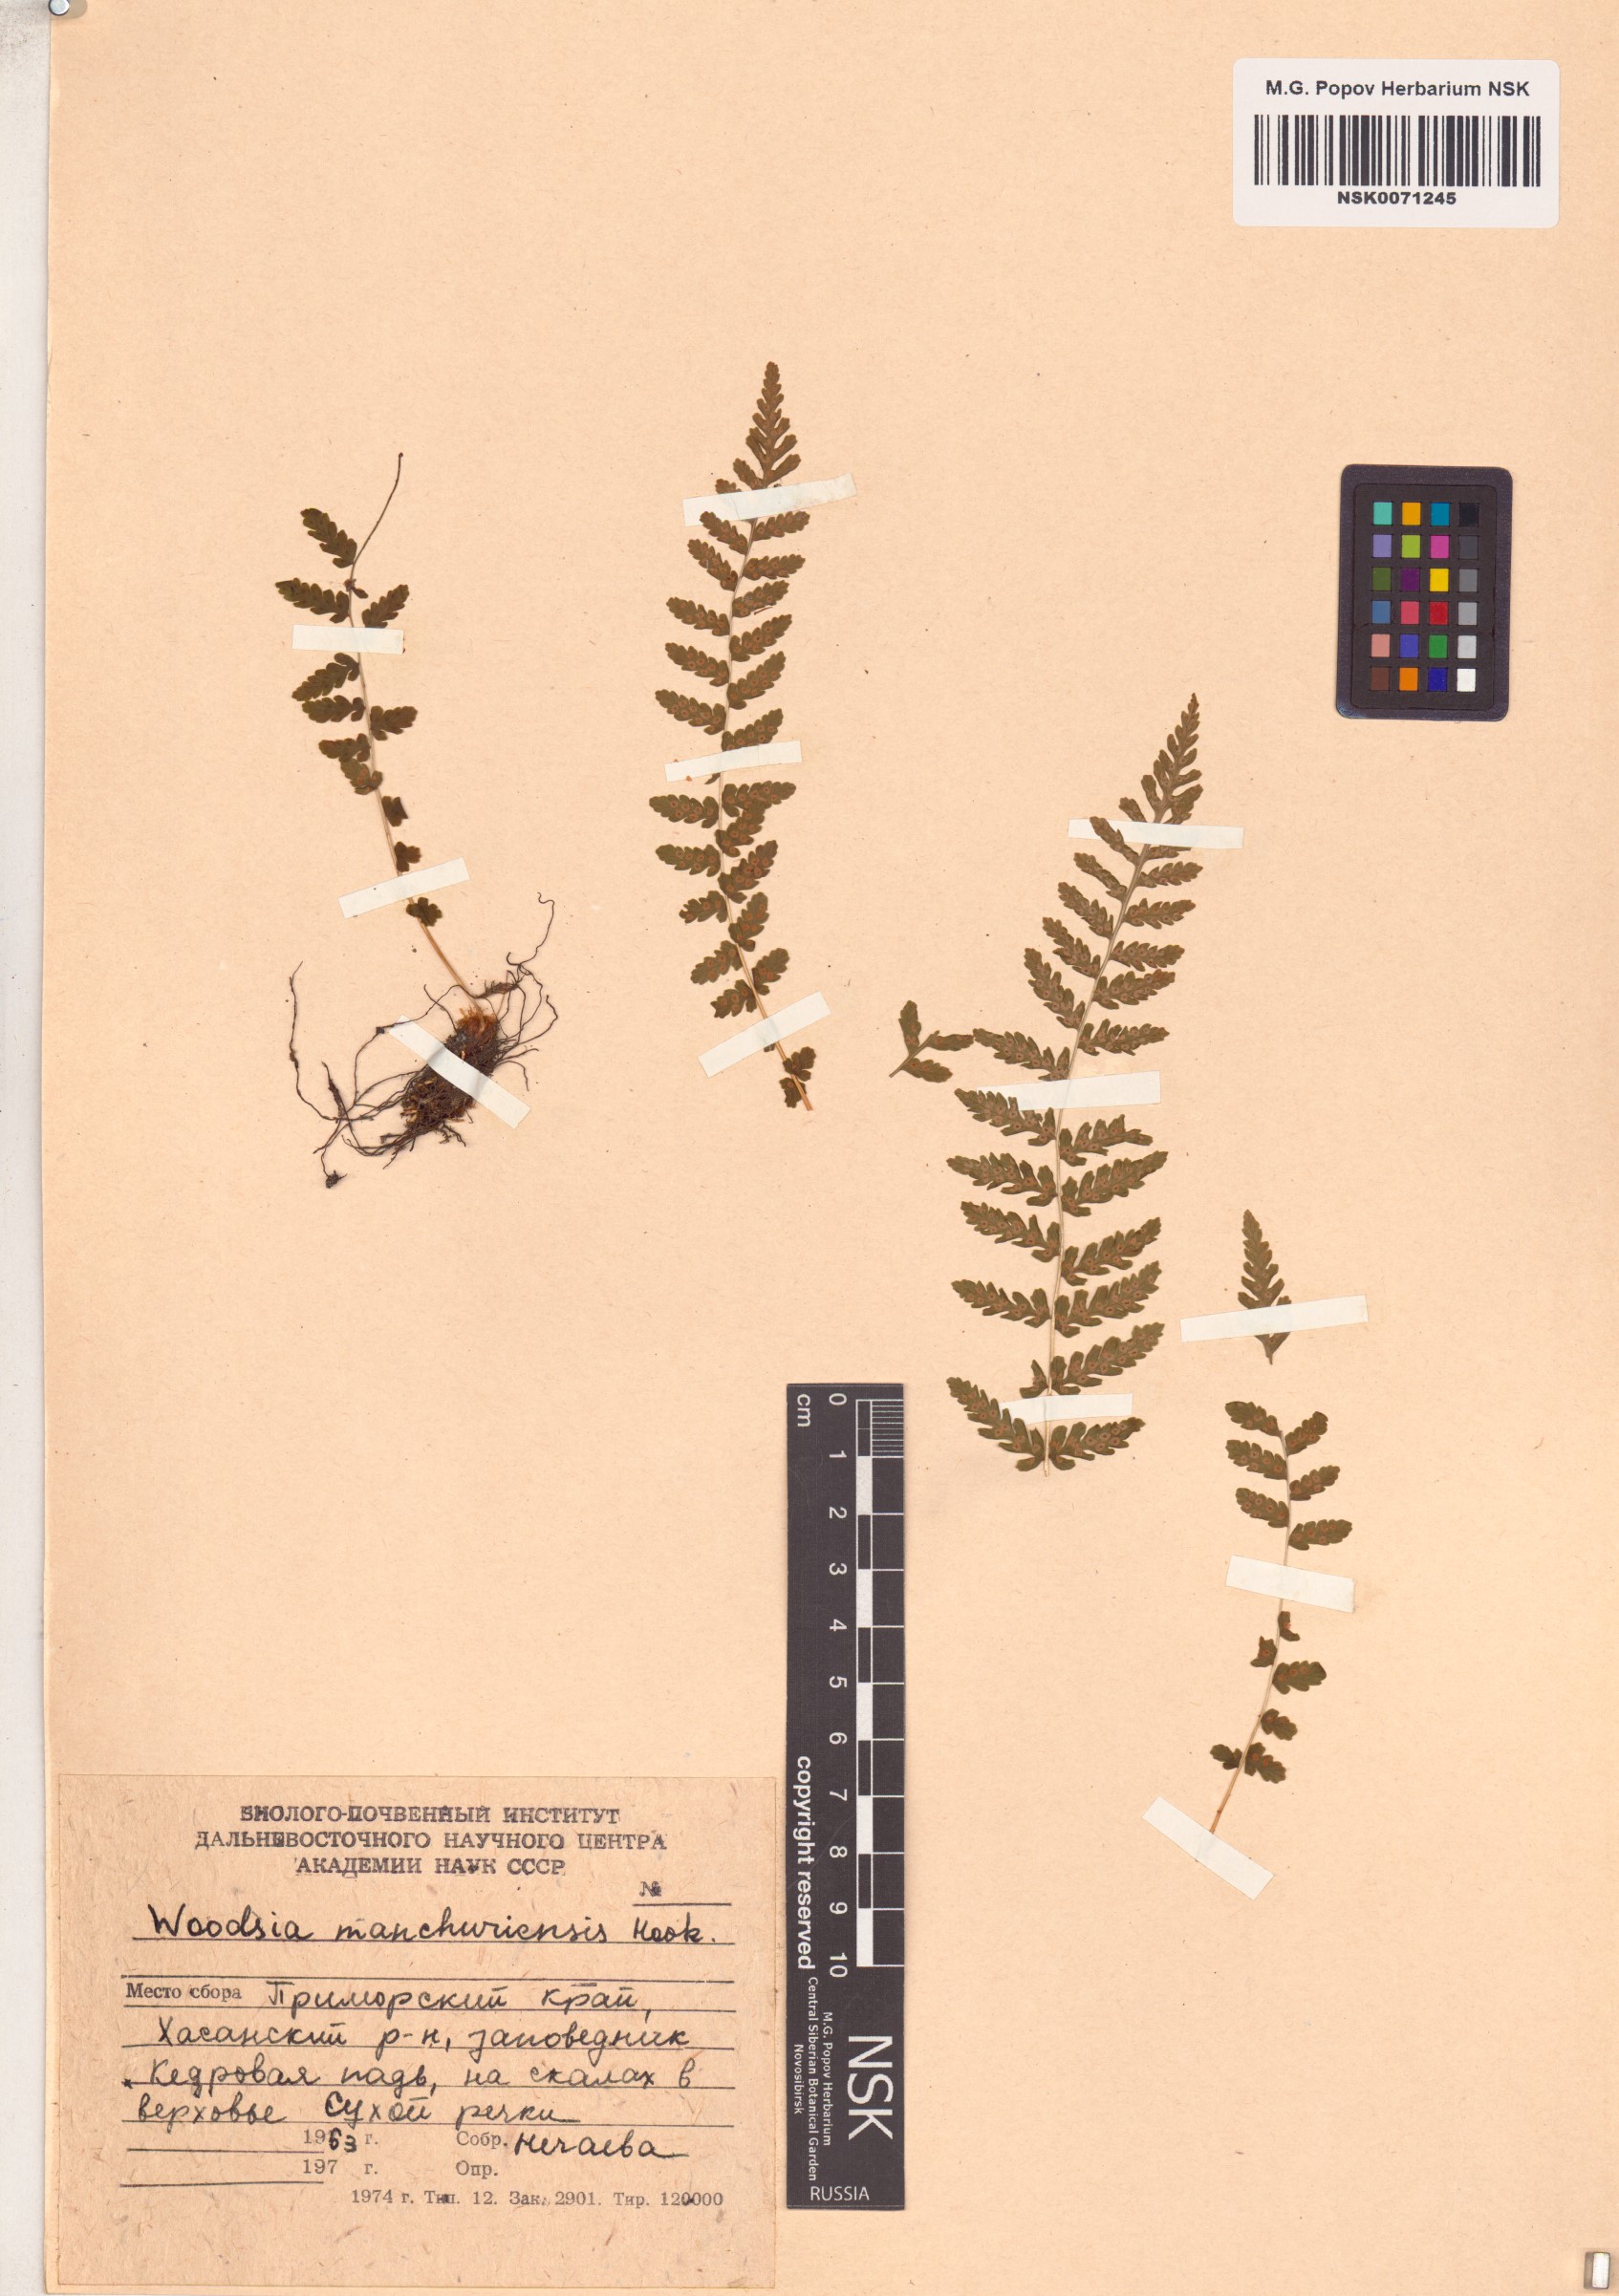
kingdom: Plantae
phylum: Tracheophyta
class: Polypodiopsida
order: Polypodiales
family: Woodsiaceae
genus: Physematium
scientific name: Physematium manchuriense
